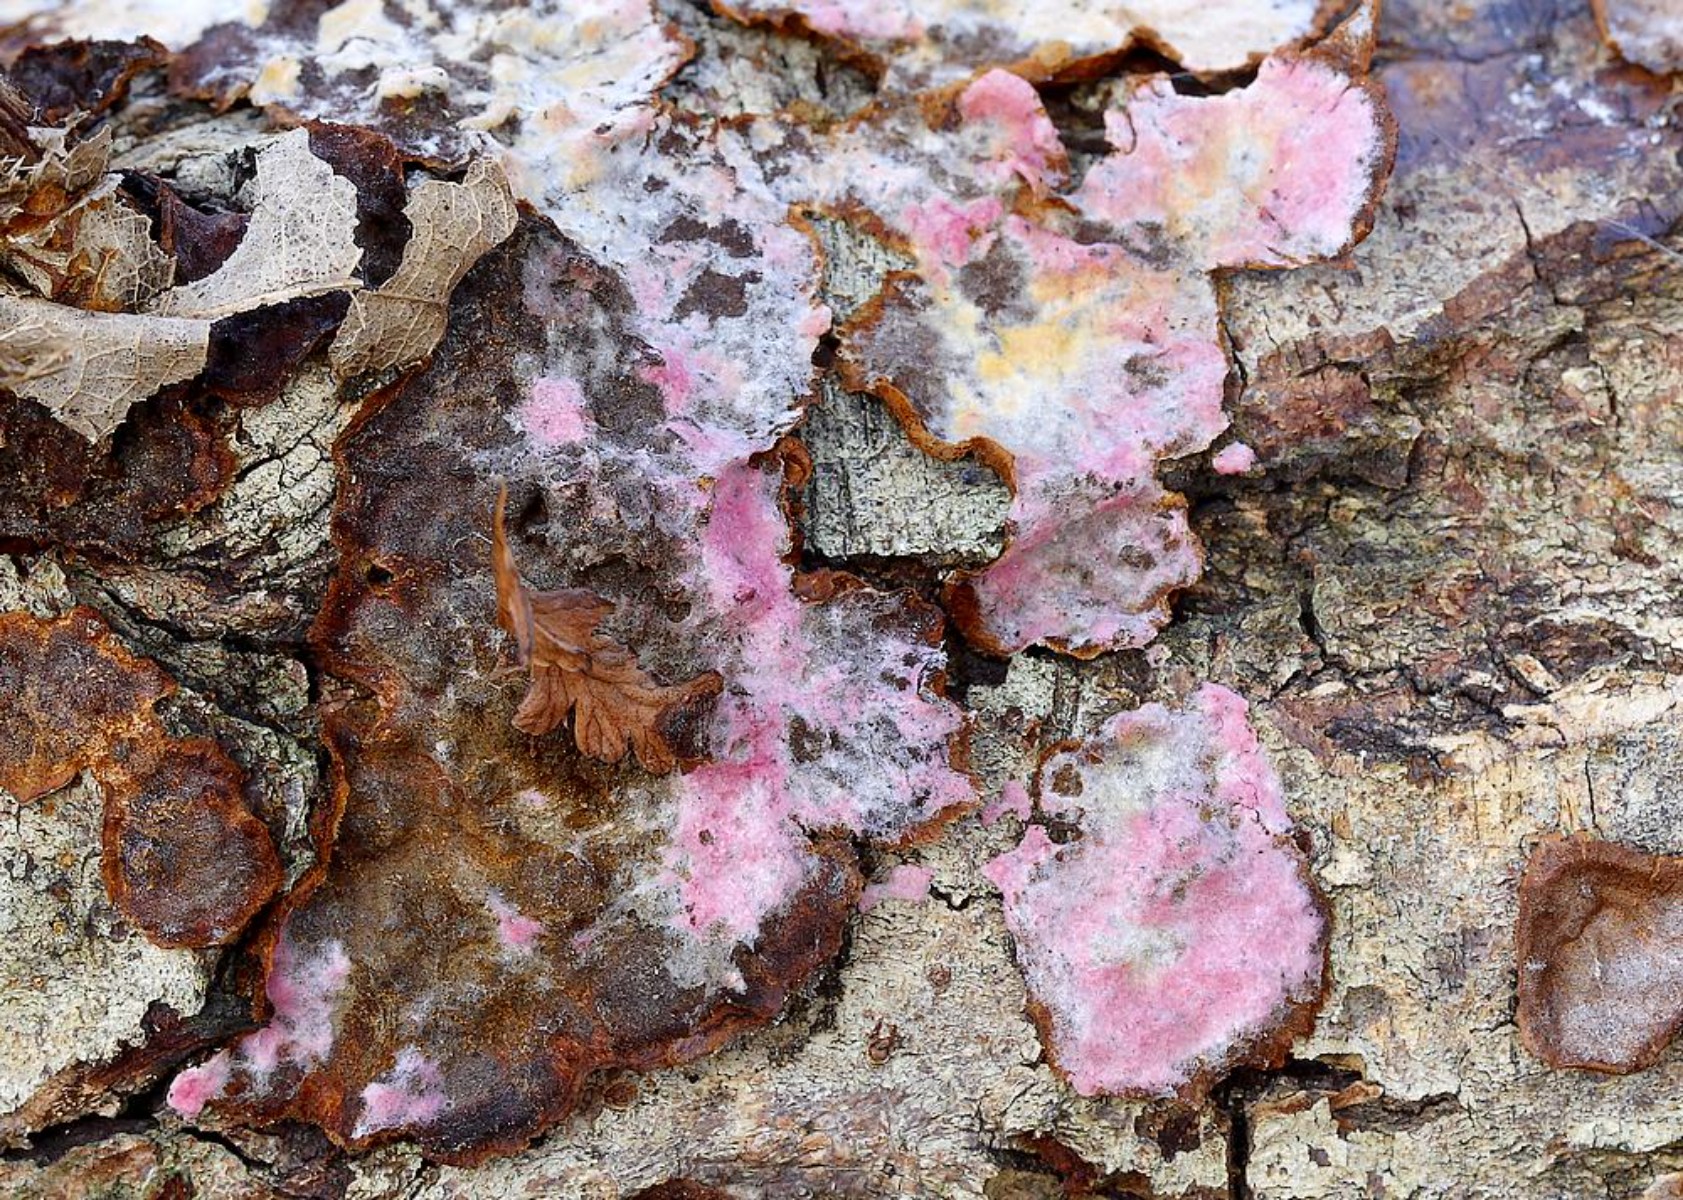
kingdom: Fungi
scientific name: Fungi
